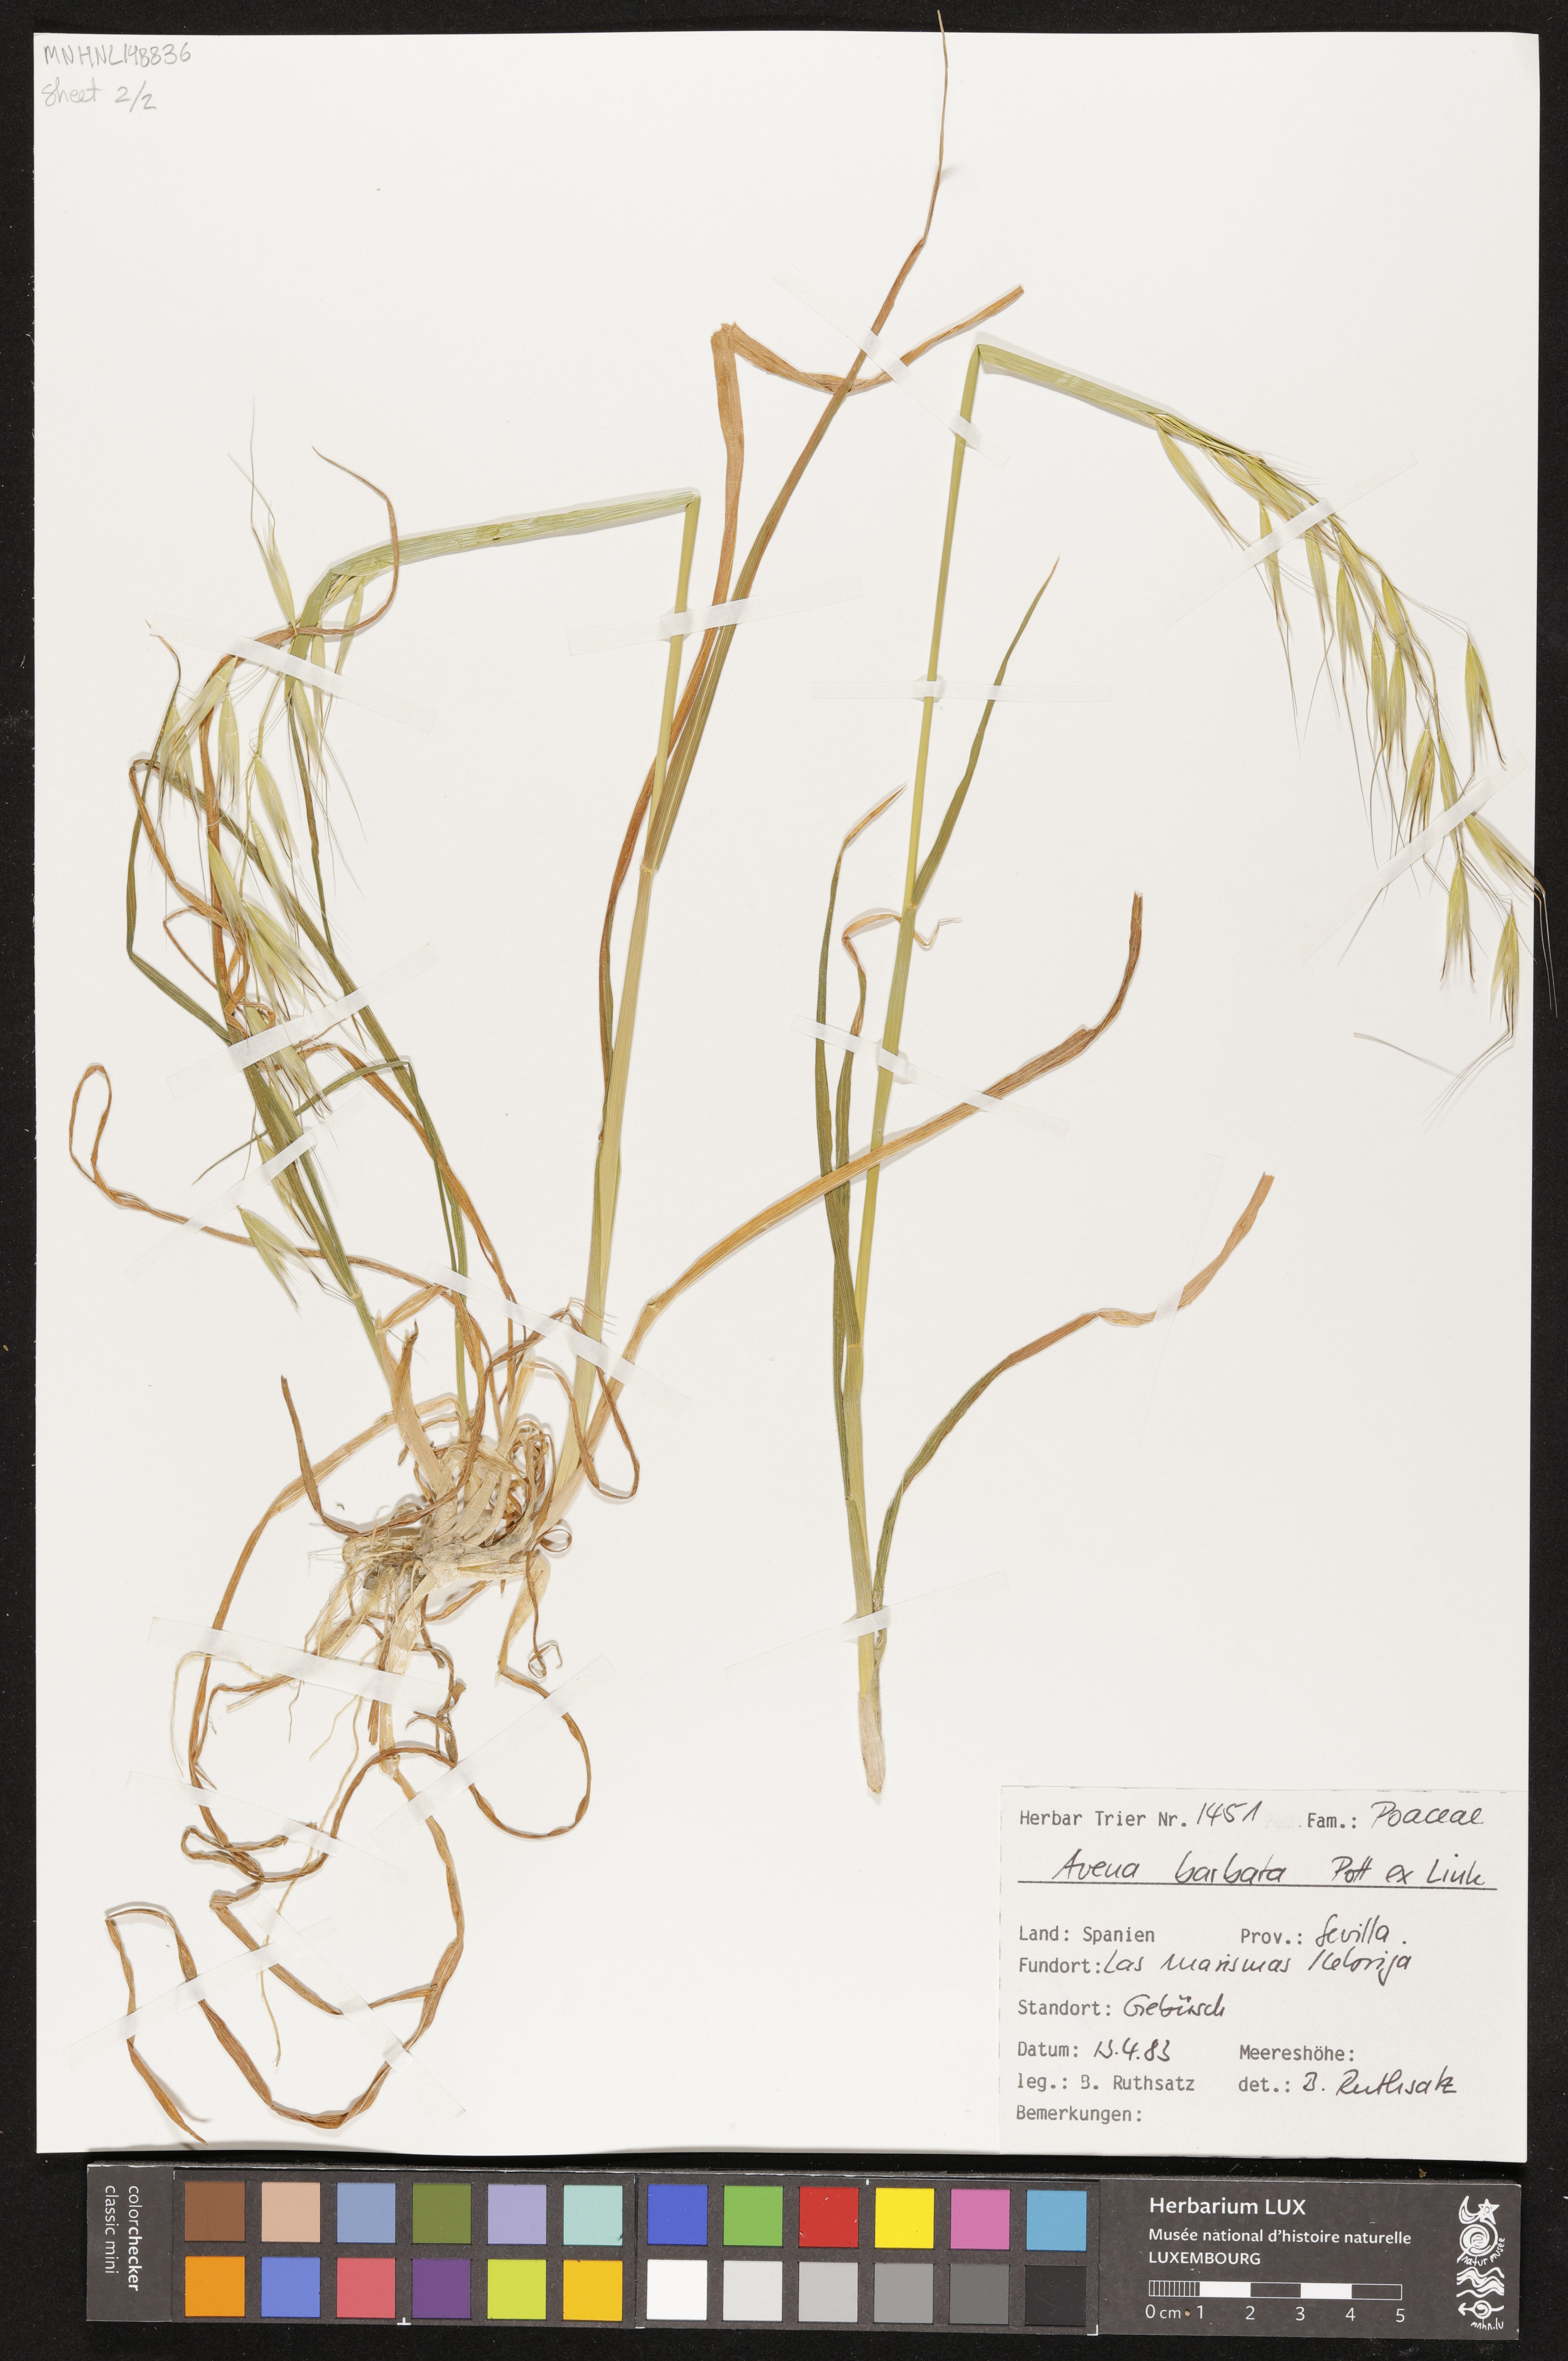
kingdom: Plantae
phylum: Tracheophyta
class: Liliopsida
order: Poales
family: Poaceae
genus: Avena
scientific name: Avena barbata
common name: Slender oat
